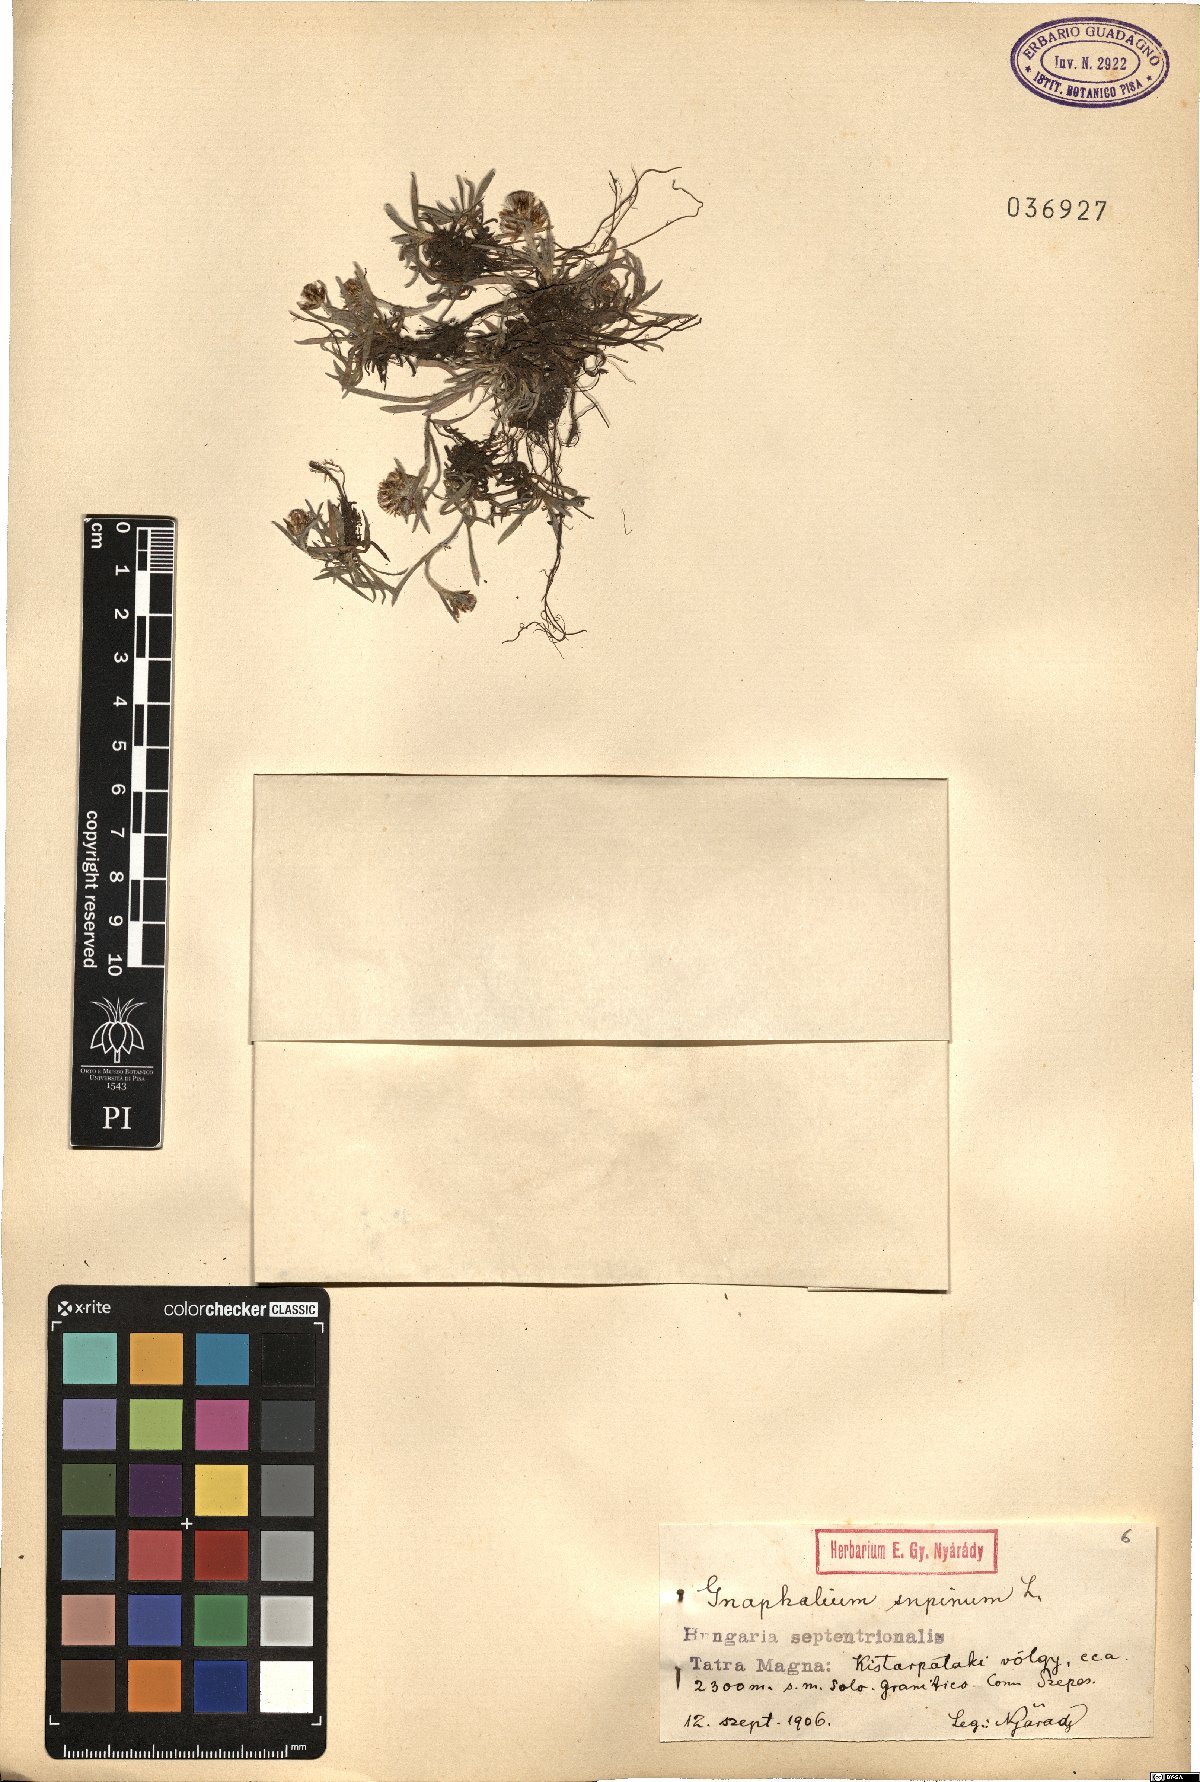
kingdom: Plantae
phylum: Tracheophyta
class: Magnoliopsida
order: Asterales
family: Asteraceae
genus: Omalotheca
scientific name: Omalotheca supina
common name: Alpine arctic-cudweed
